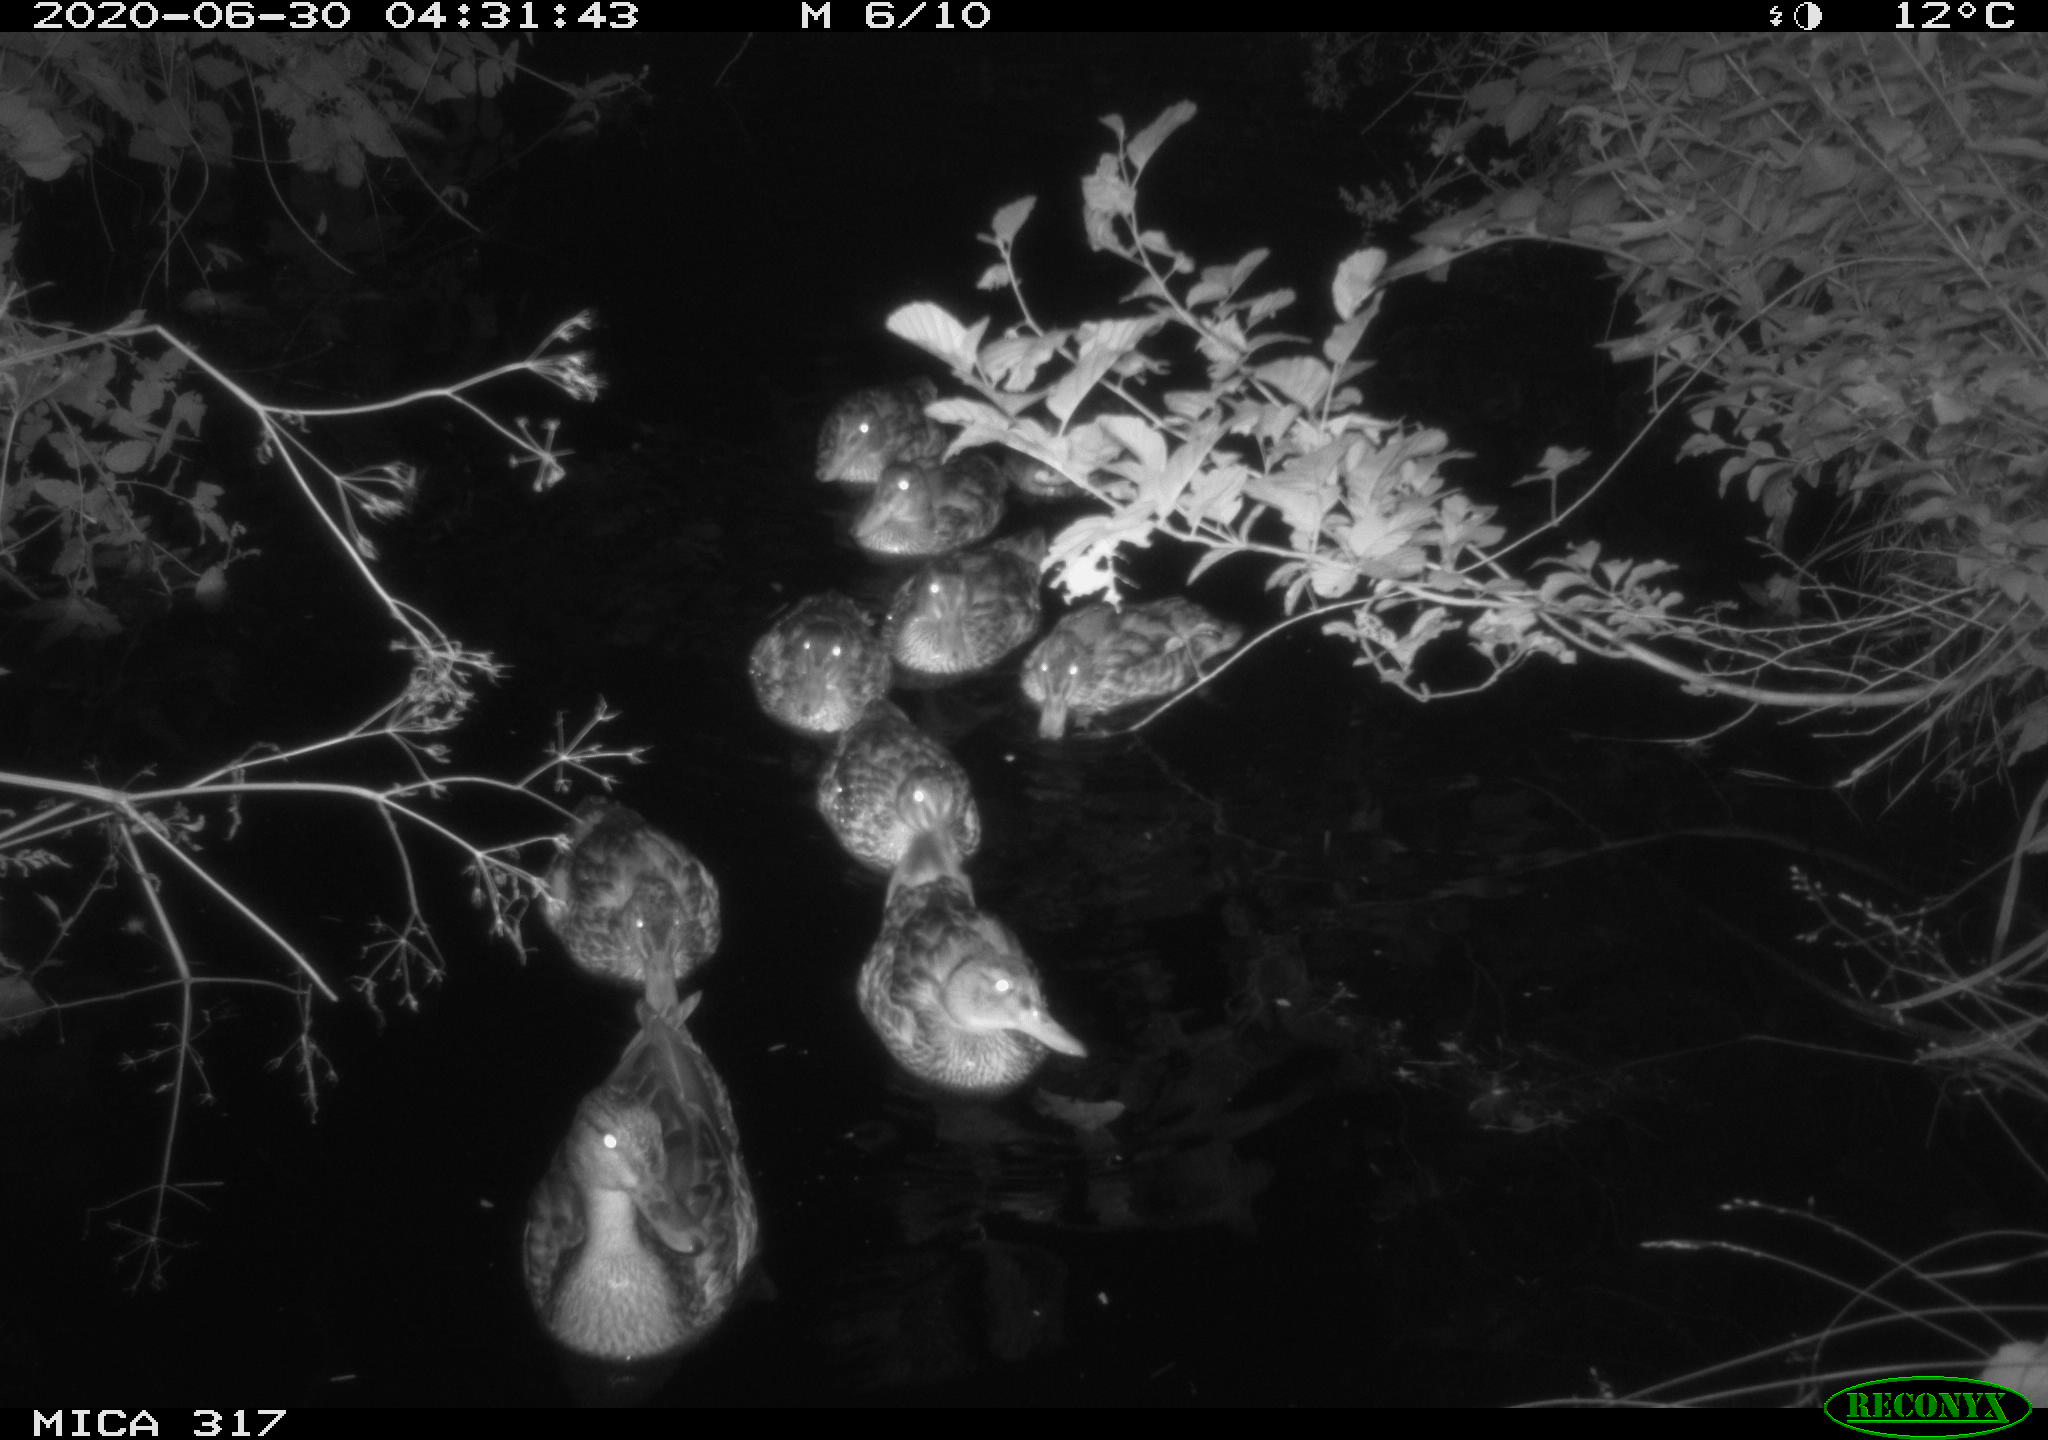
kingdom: Animalia
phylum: Chordata
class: Aves
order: Anseriformes
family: Anatidae
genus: Anas
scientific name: Anas platyrhynchos
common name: Mallard
